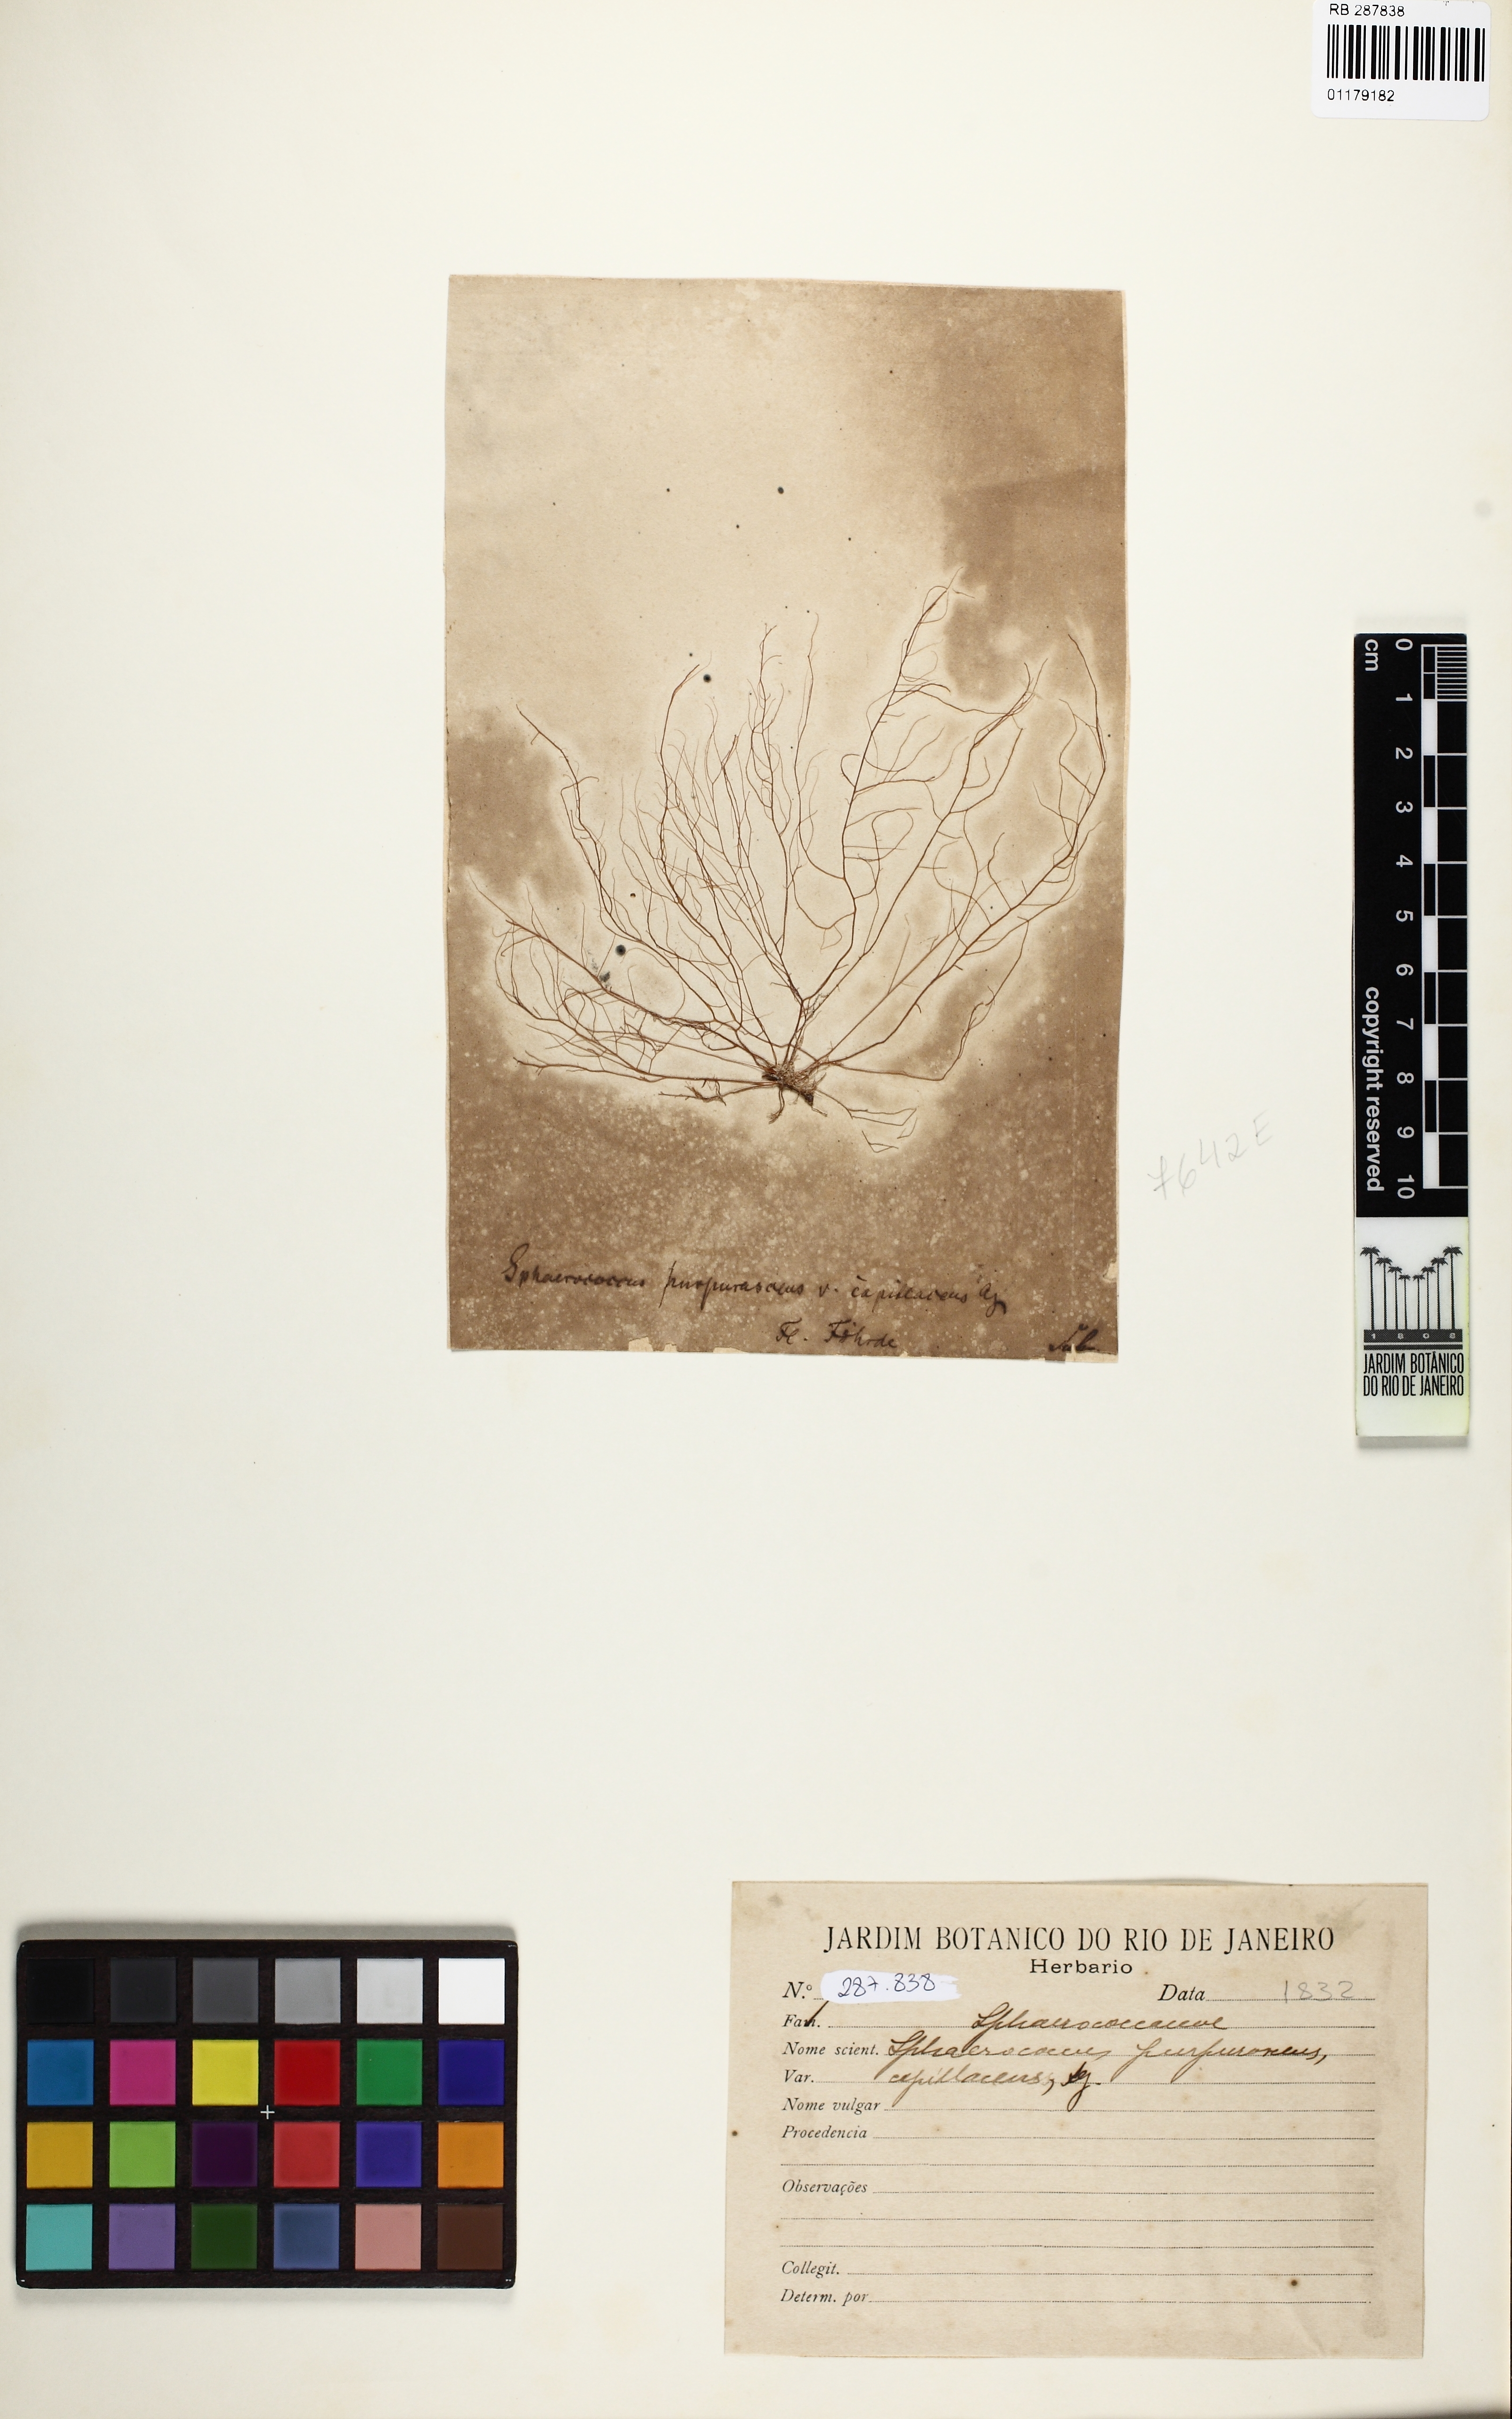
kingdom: Plantae
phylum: Rhodophyta
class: Florideophyceae
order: Gigartinales
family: Cystocloniaceae
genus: Cystoclonium
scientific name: Cystoclonium purpureum
